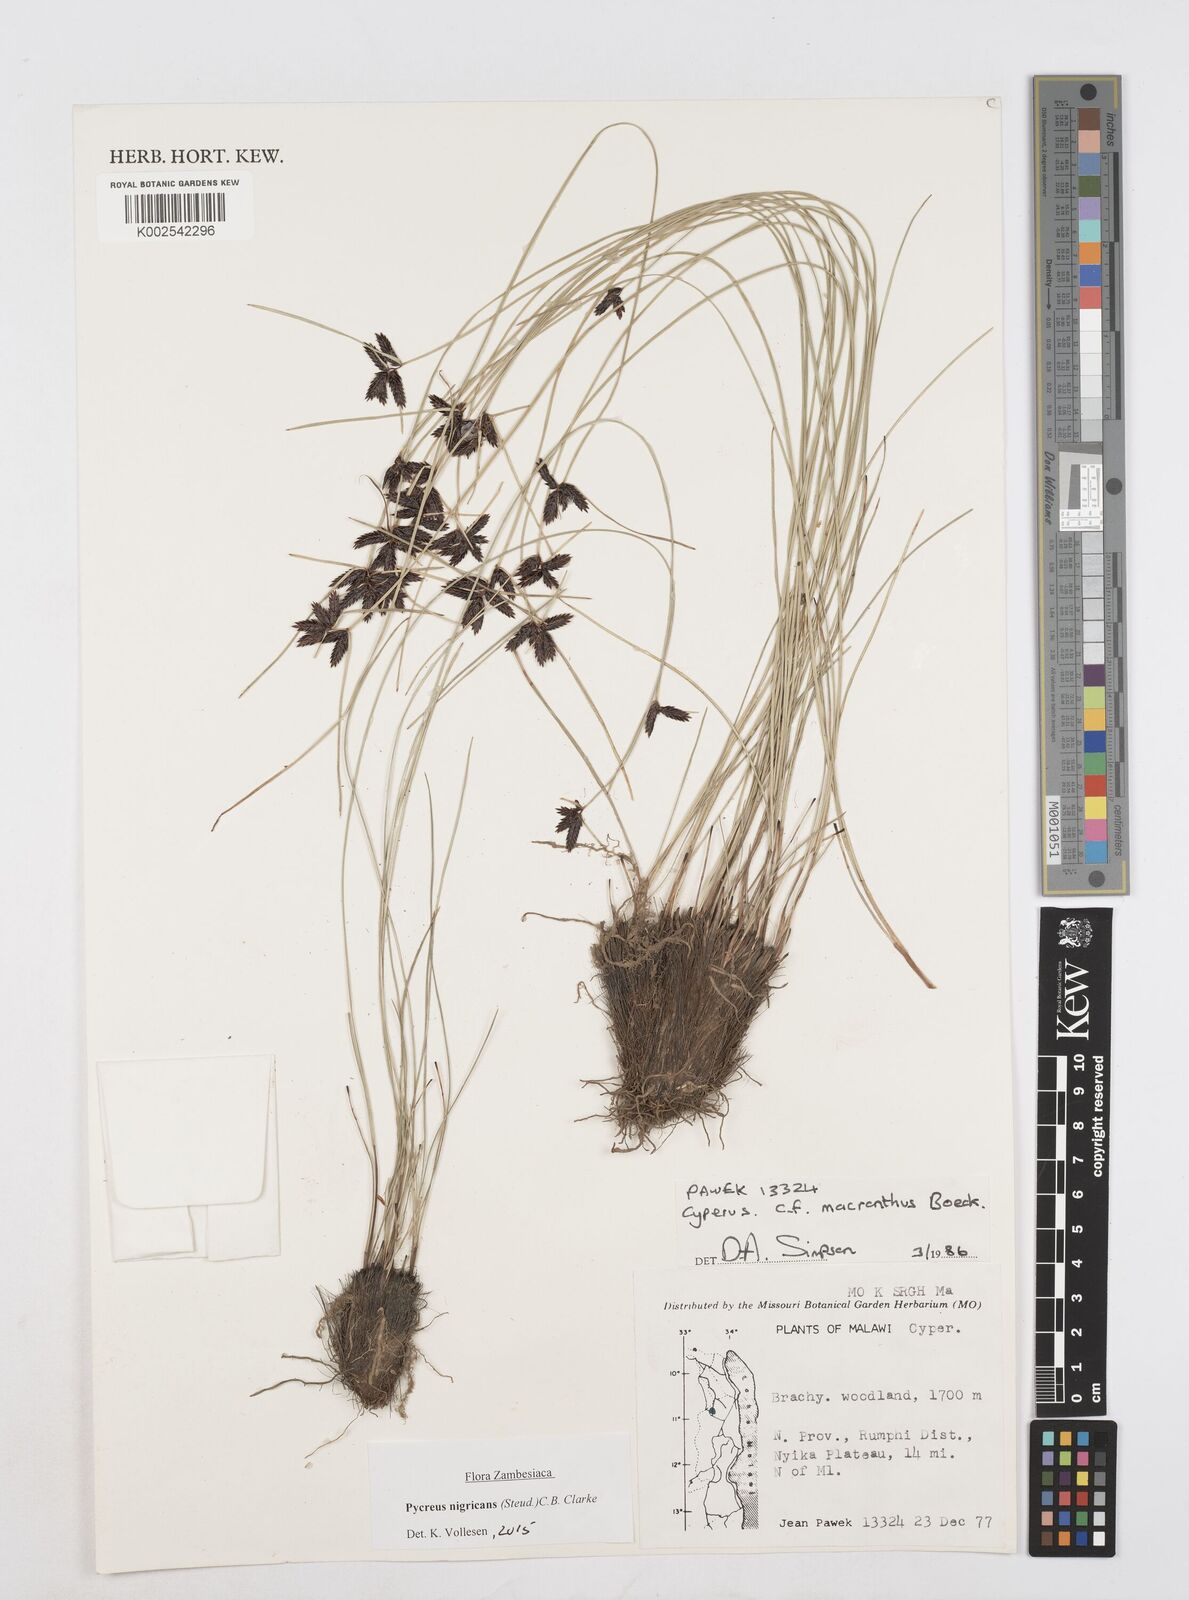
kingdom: Plantae
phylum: Tracheophyta
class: Liliopsida
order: Poales
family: Cyperaceae
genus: Cyperus
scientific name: Cyperus nigricans
